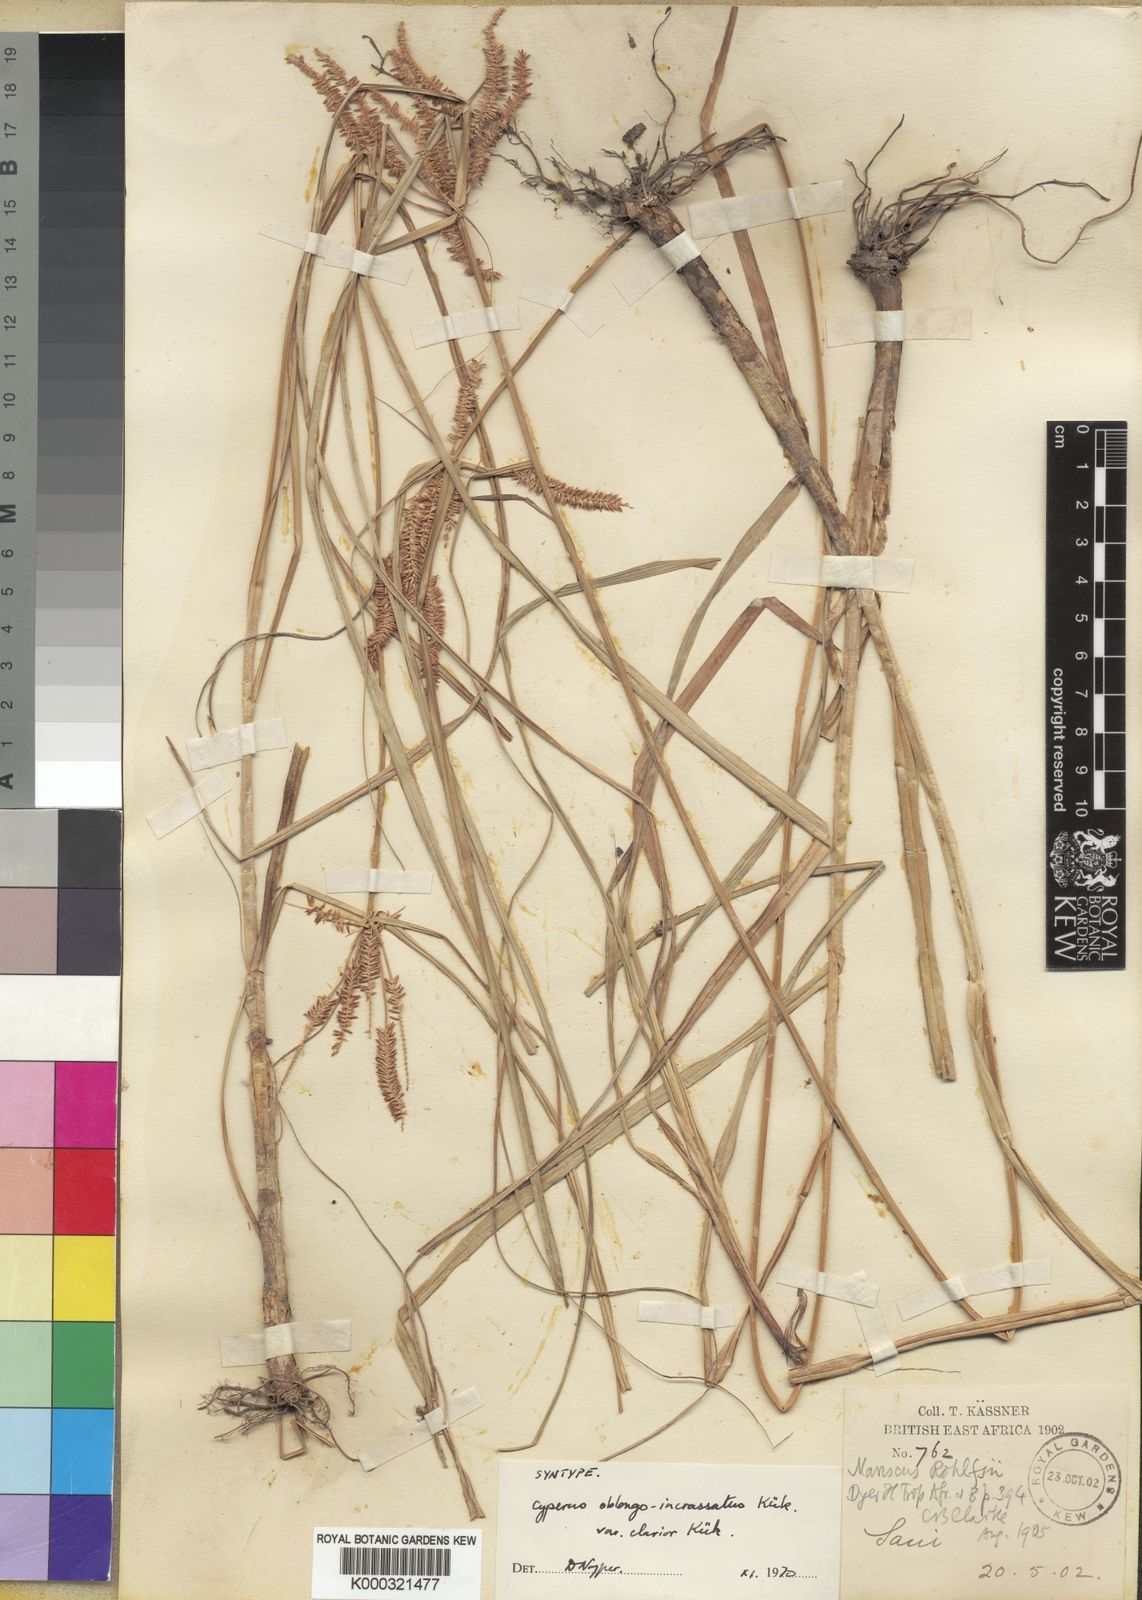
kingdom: Plantae
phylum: Tracheophyta
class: Liliopsida
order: Poales
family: Cyperaceae
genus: Cyperus
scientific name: Cyperus rohlfsii
